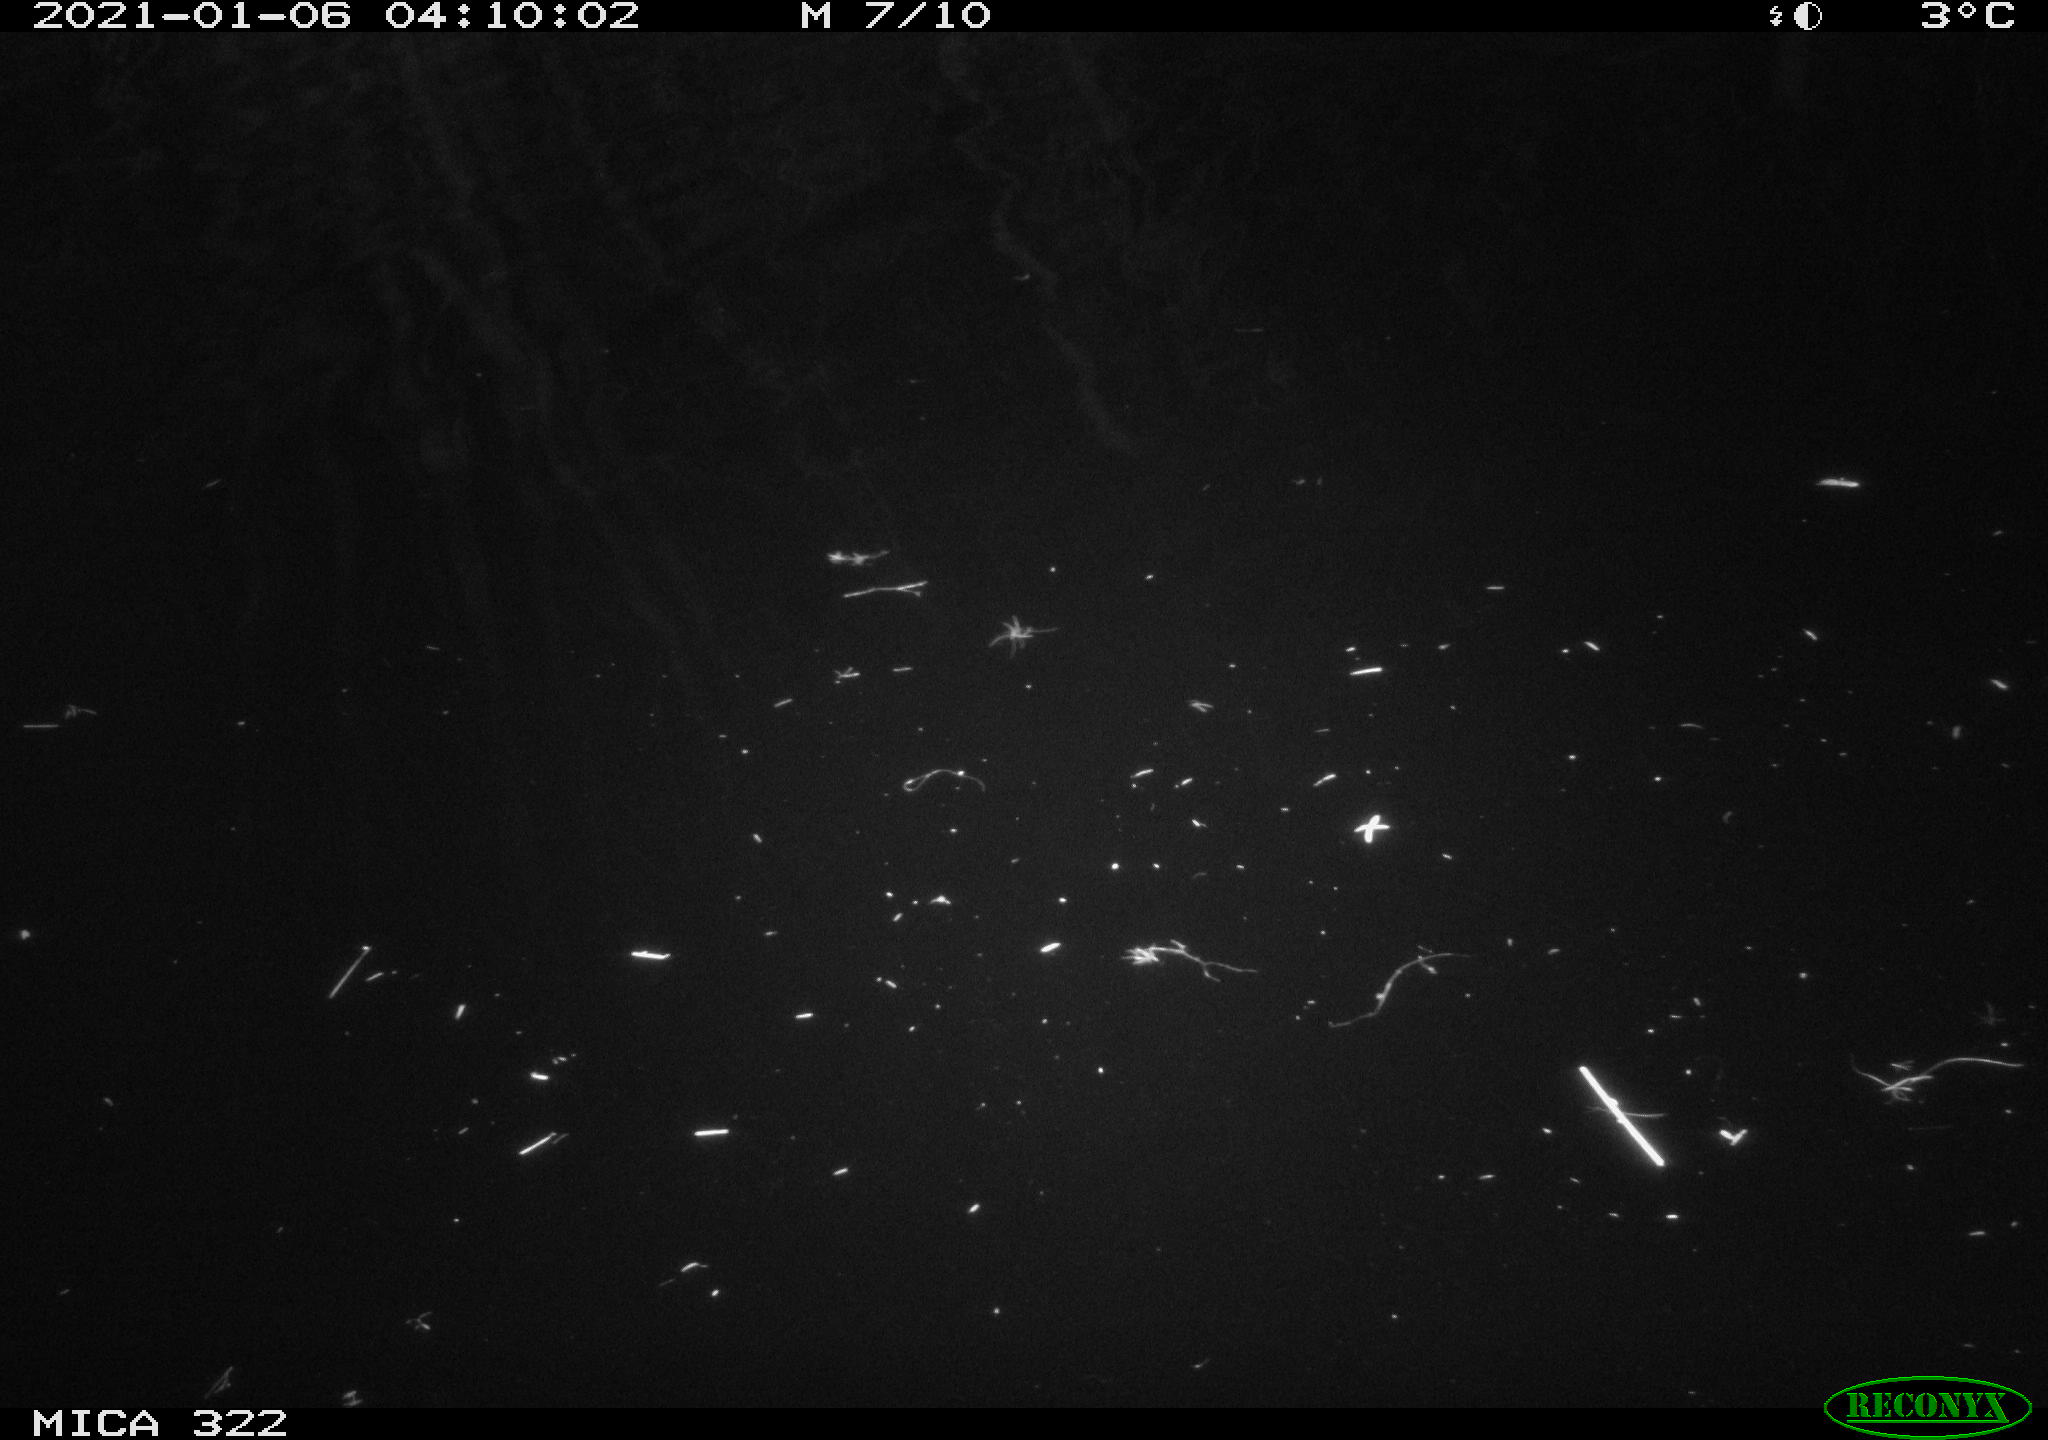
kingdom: Animalia
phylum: Chordata
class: Aves
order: Anseriformes
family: Anatidae
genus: Mareca
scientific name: Mareca strepera
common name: Gadwall
